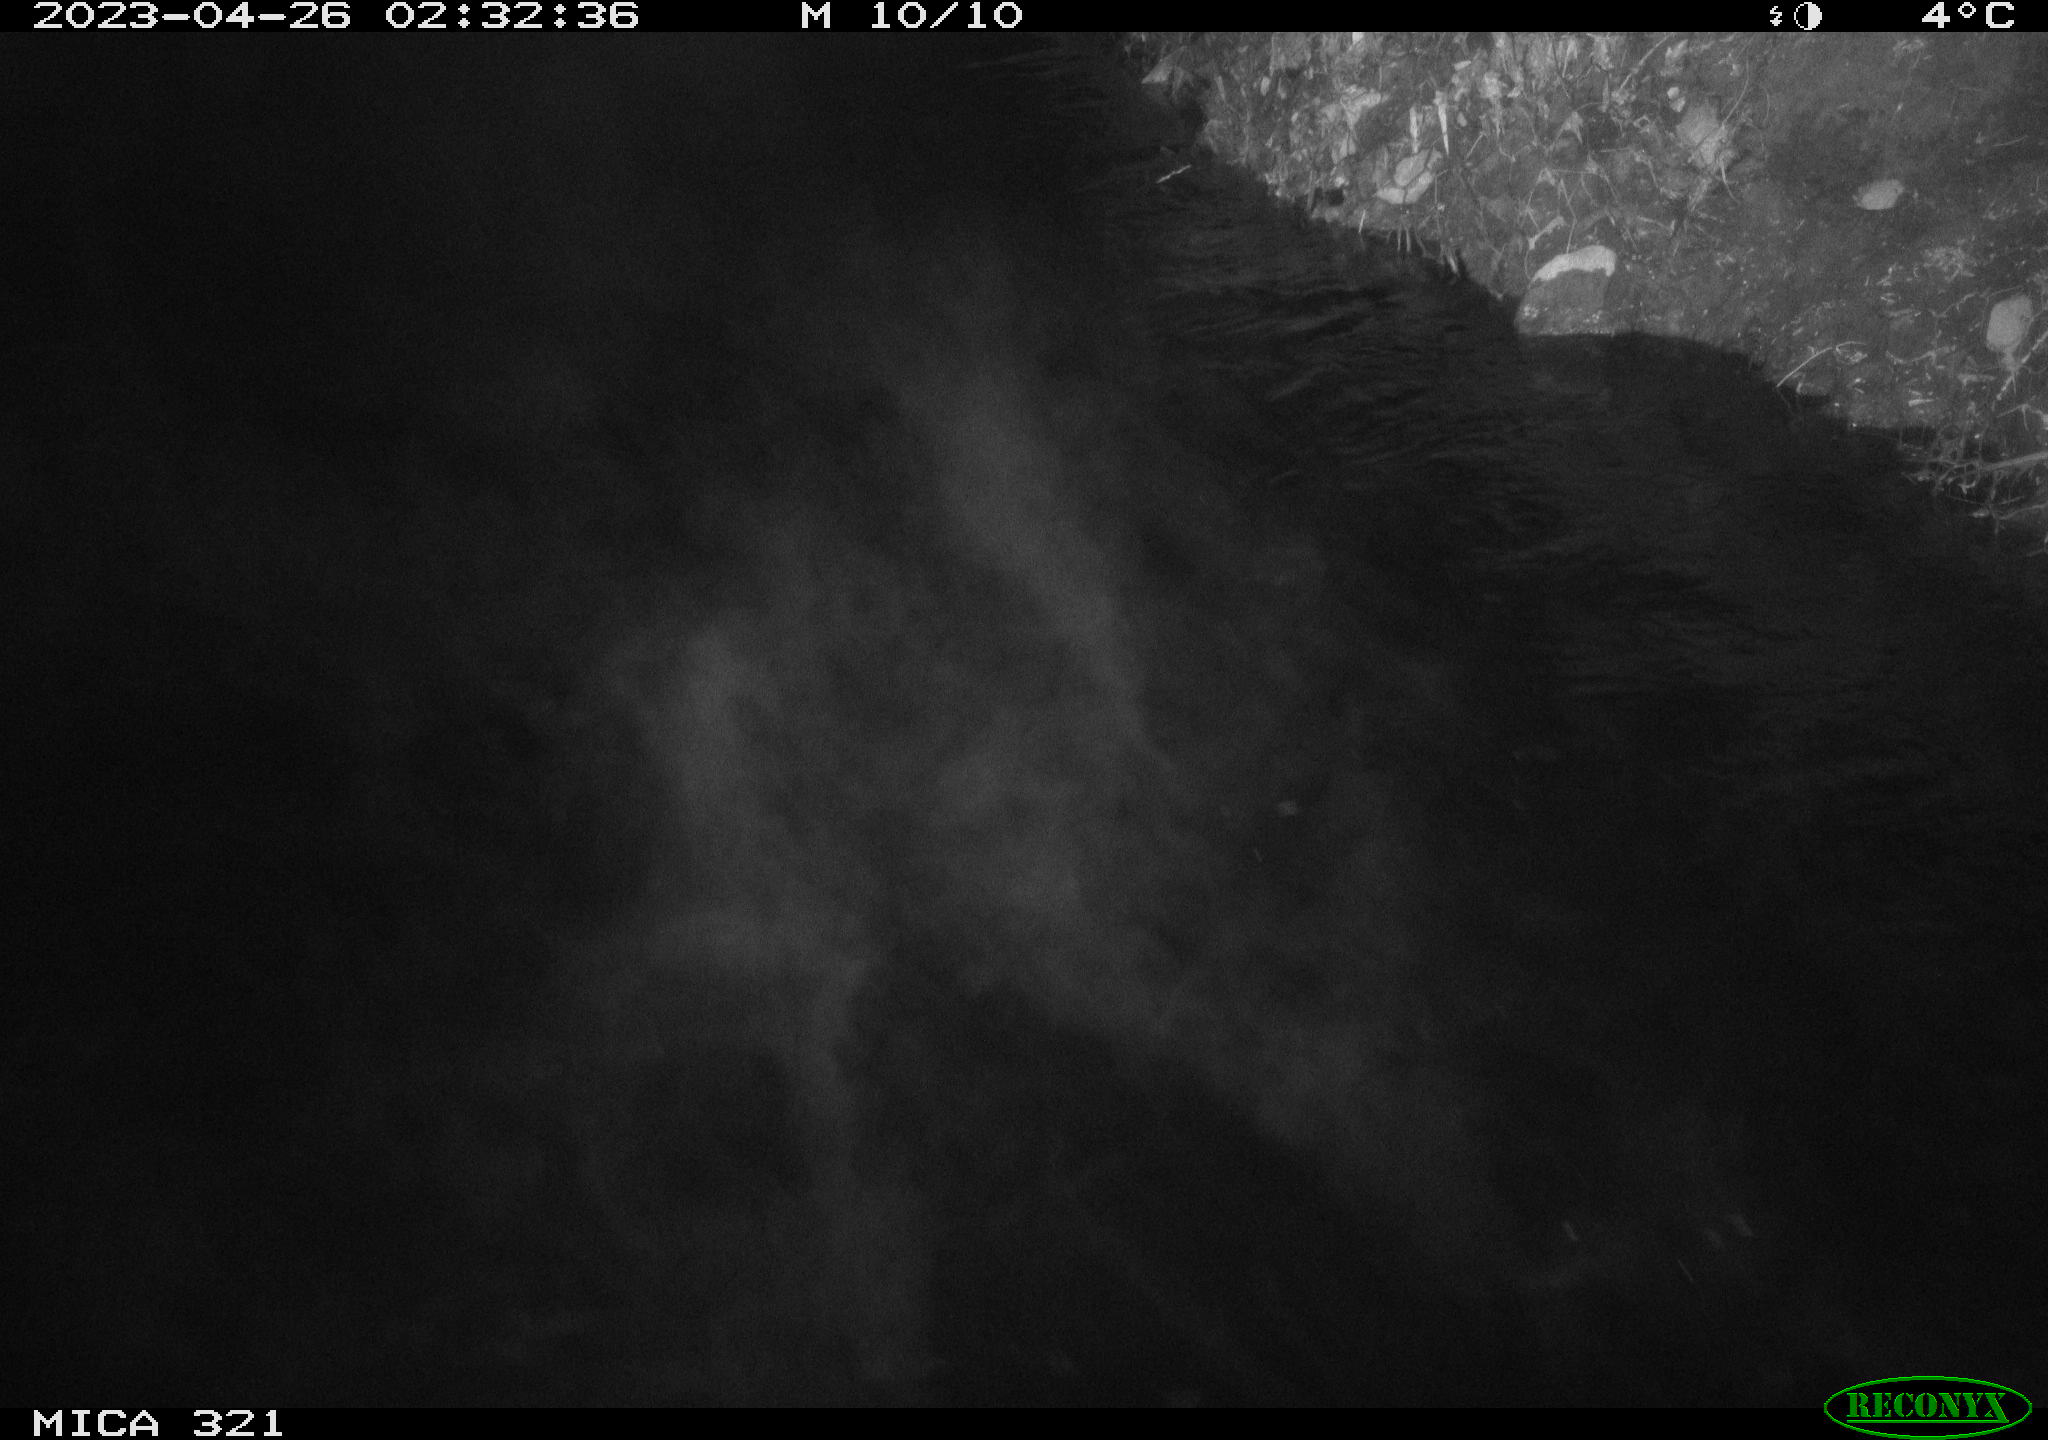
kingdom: Animalia
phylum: Chordata
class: Aves
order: Anseriformes
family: Anatidae
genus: Anas
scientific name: Anas
